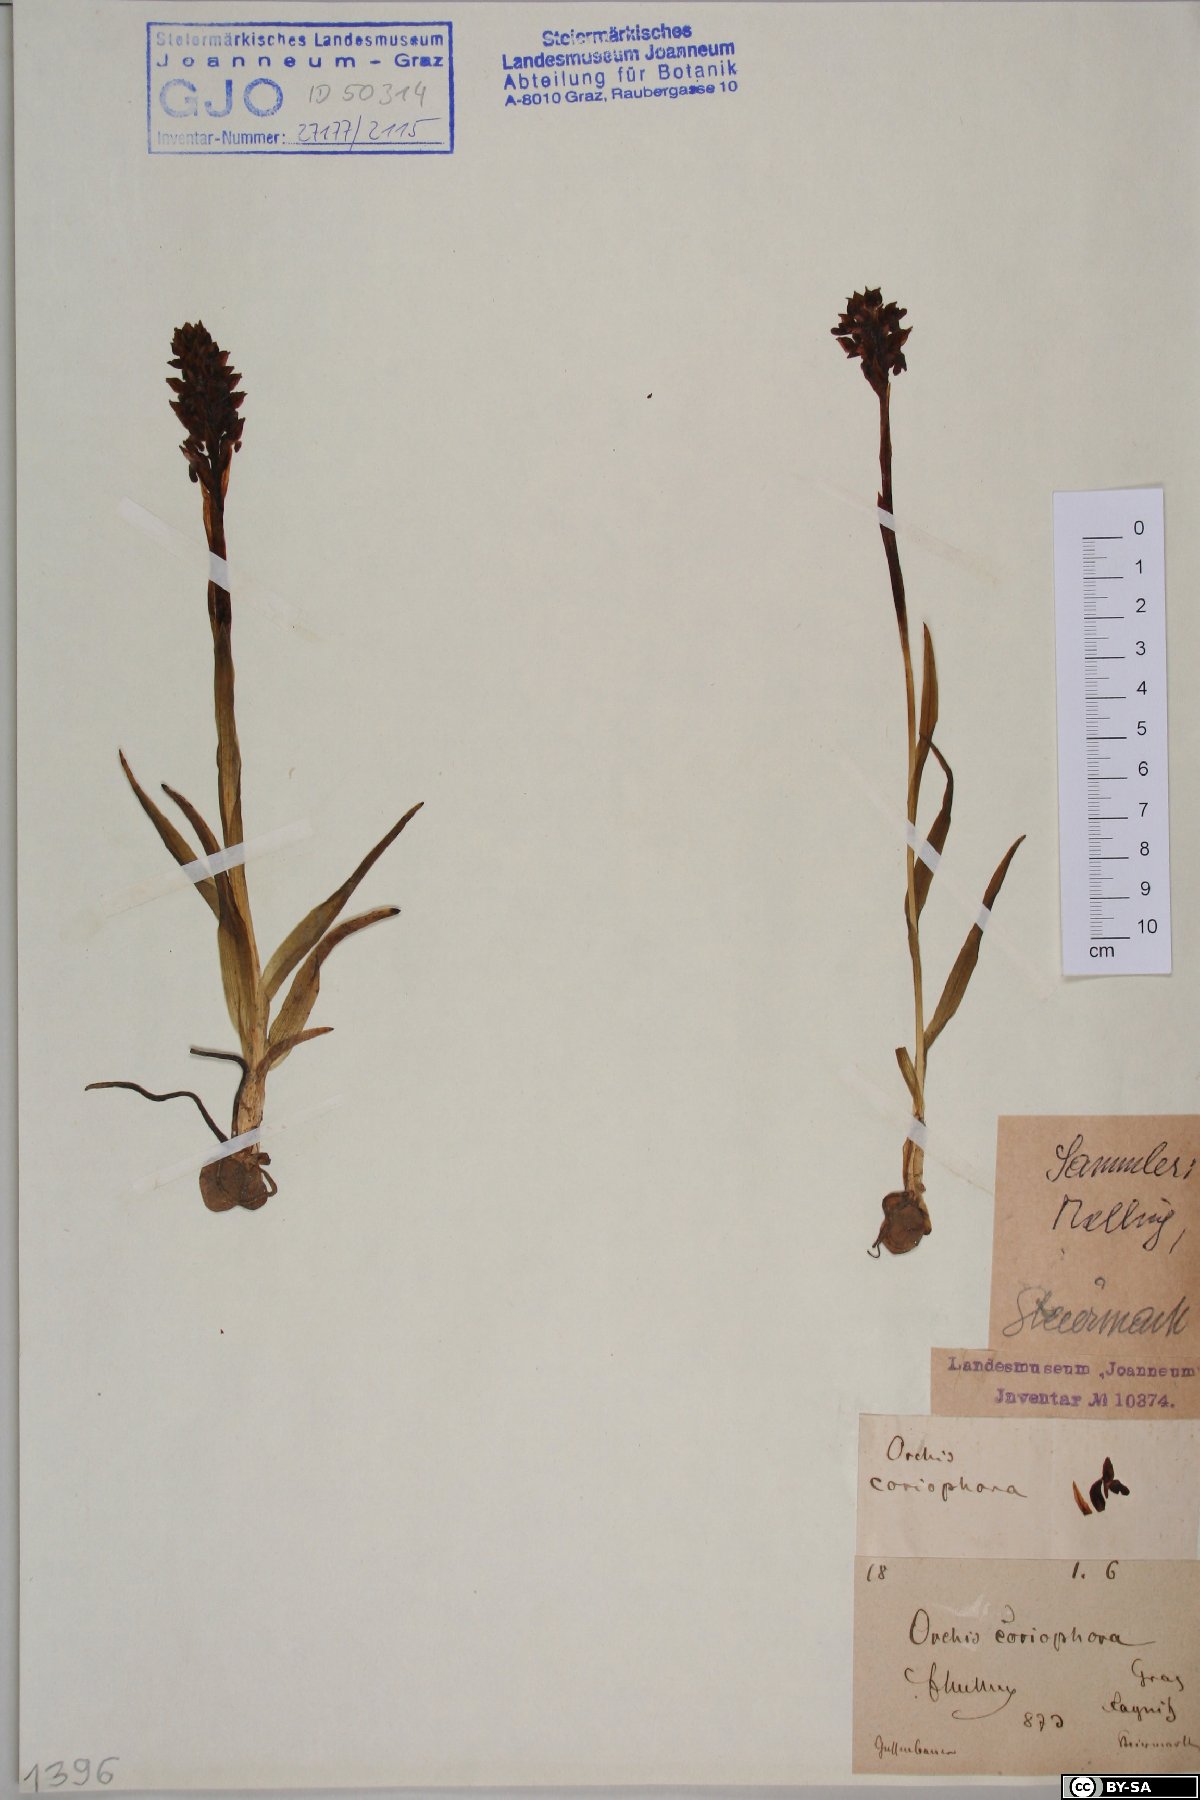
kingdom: Plantae
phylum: Tracheophyta
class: Magnoliopsida
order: Ranunculales
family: Ranunculaceae
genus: Ranunculus
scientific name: Ranunculus styriacus
